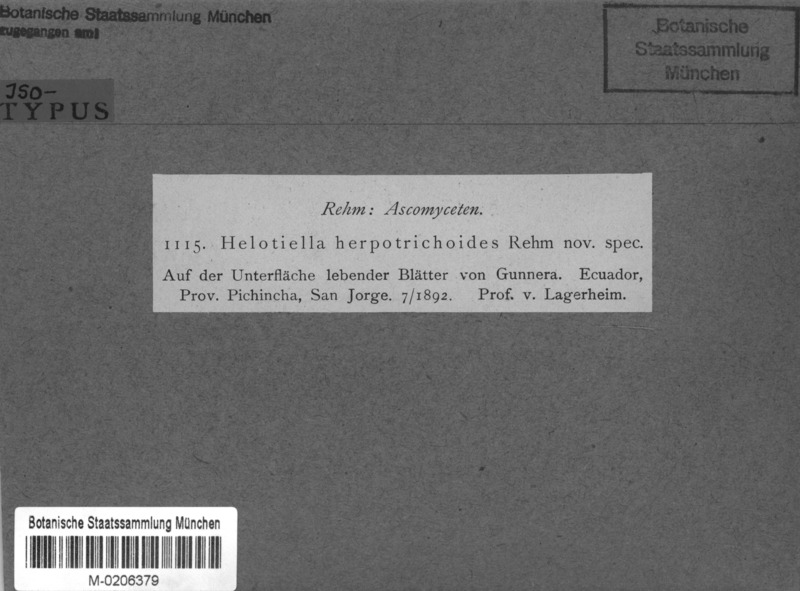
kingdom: Fungi
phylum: Ascomycota
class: Leotiomycetes
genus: Helotiella
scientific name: Helotiella herpotrichoides
